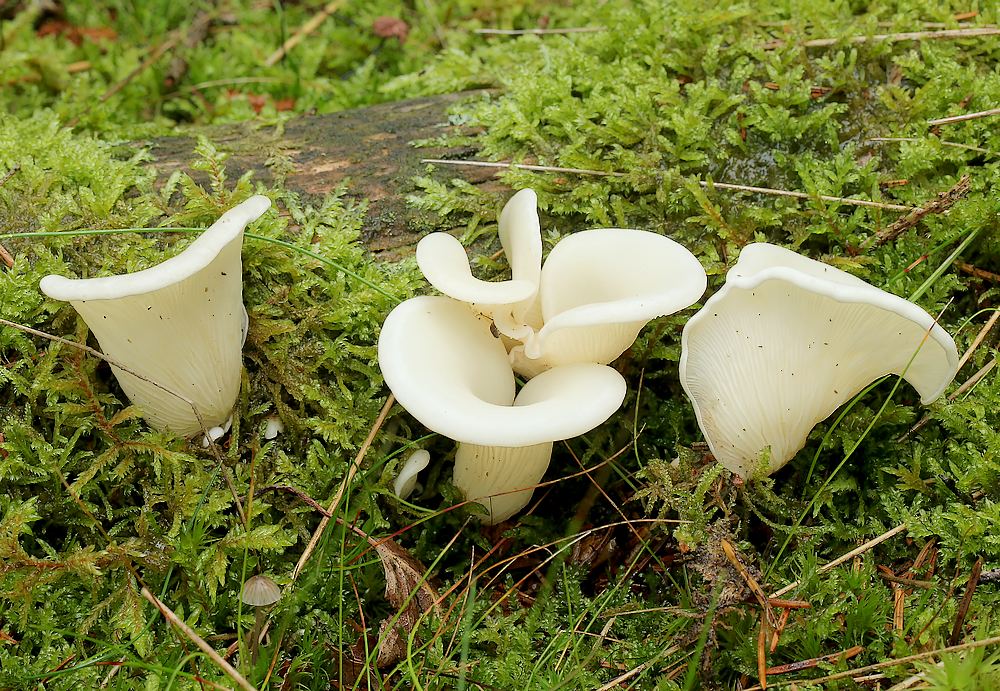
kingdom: Fungi
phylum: Basidiomycota
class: Agaricomycetes
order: Agaricales
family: Marasmiaceae
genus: Pleurocybella
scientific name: Pleurocybella porrigens
